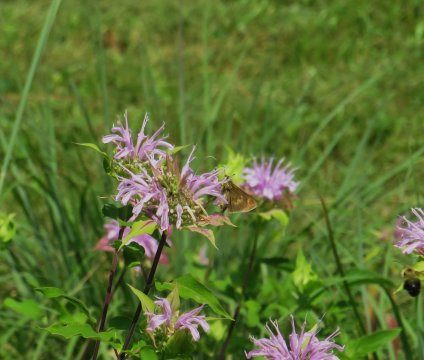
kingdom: Animalia
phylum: Arthropoda
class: Insecta
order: Lepidoptera
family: Hesperiidae
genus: Polites
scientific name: Polites
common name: Crossline Skipper
